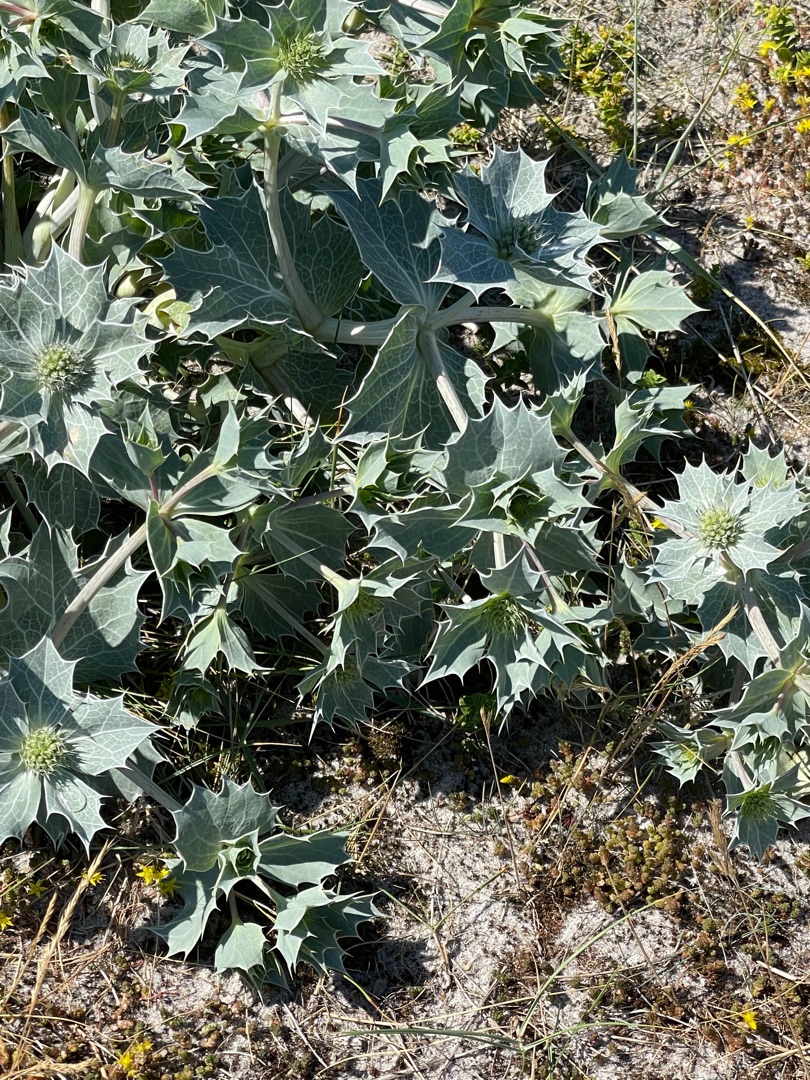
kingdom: Plantae
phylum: Tracheophyta
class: Magnoliopsida
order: Apiales
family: Apiaceae
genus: Eryngium
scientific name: Eryngium maritimum
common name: Strand-mandstro
